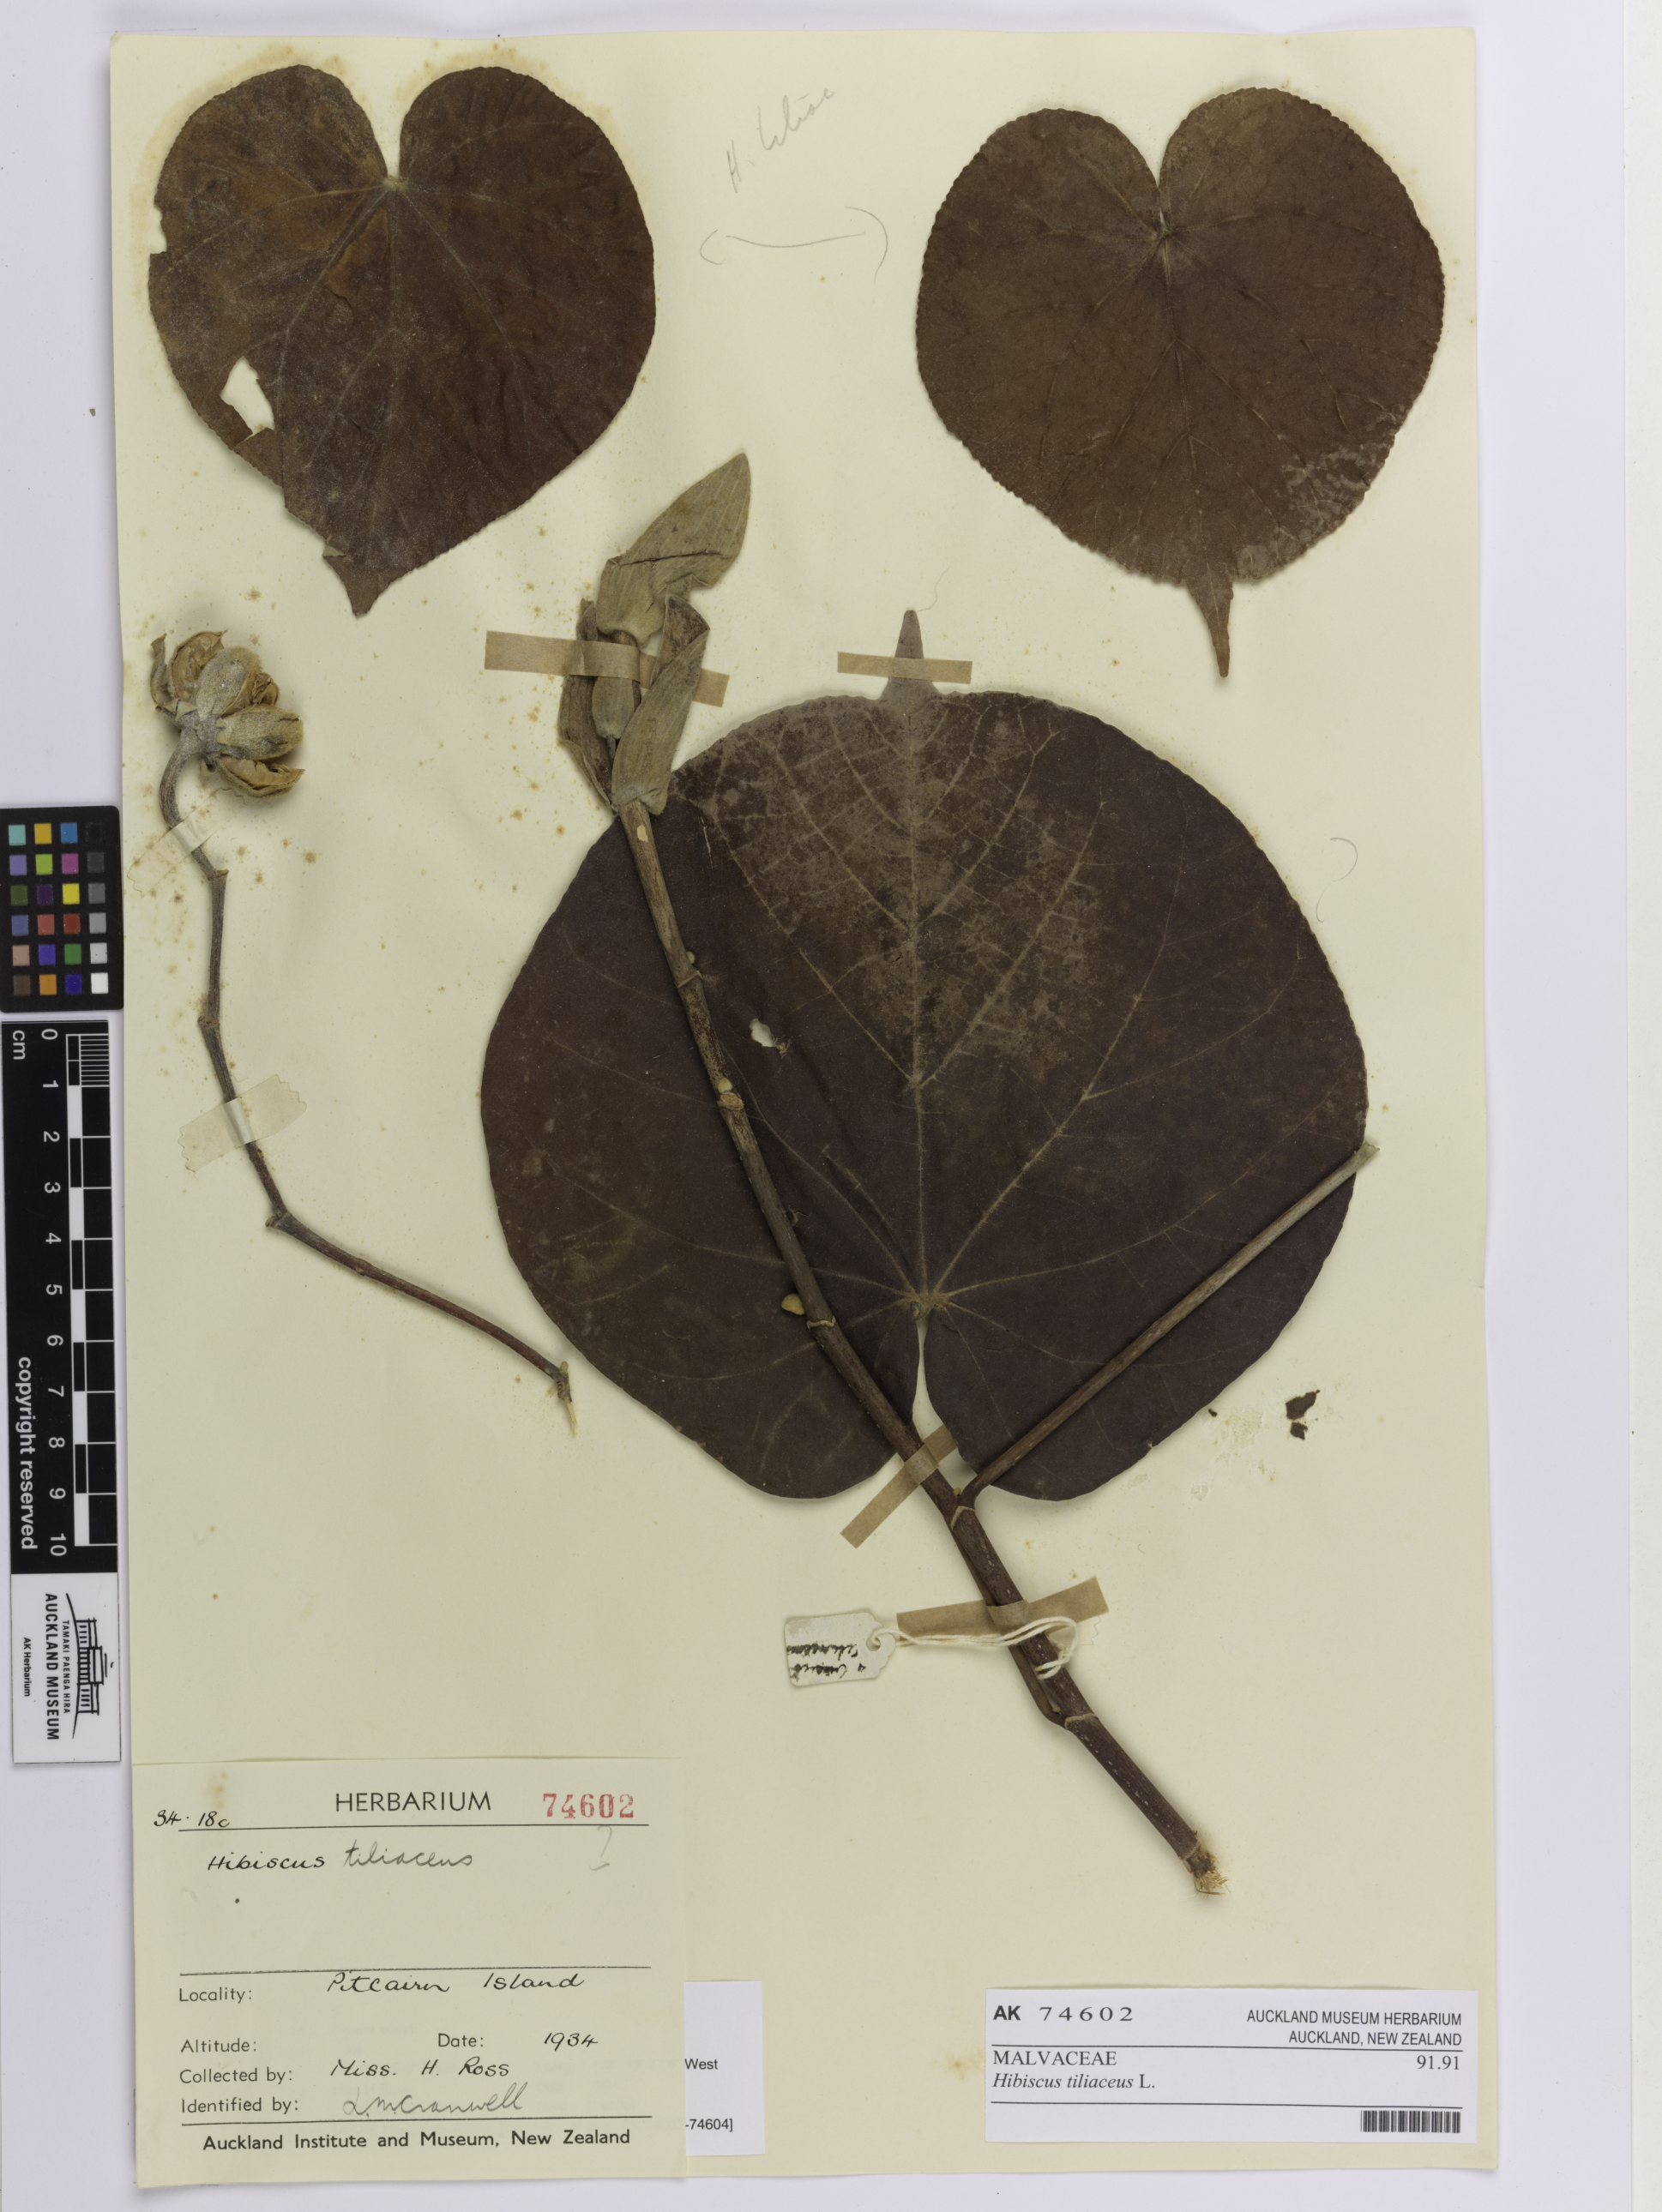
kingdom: Plantae
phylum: Tracheophyta
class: Magnoliopsida
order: Malvales
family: Malvaceae
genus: Talipariti
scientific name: Talipariti tiliaceum
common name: Sea hibiscus
